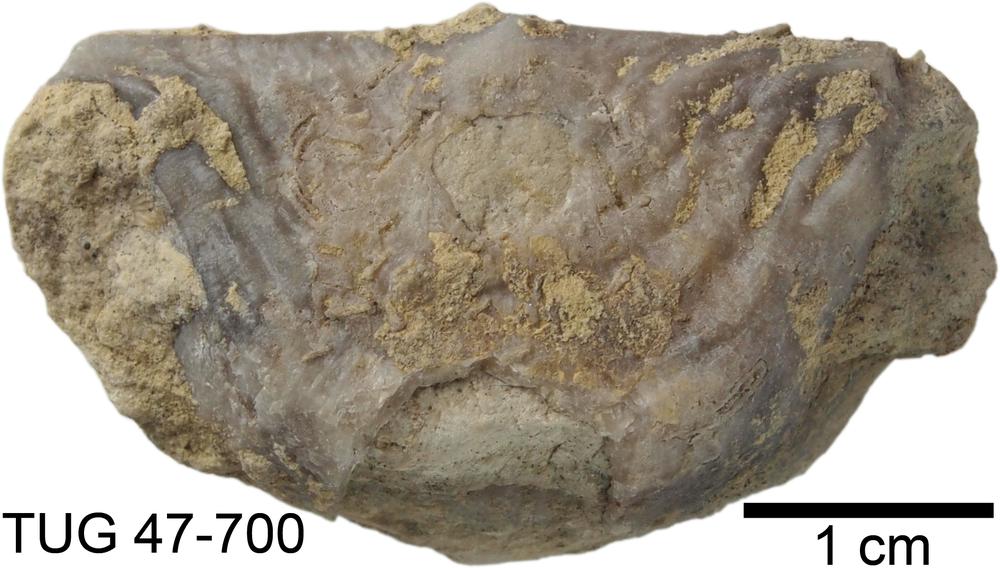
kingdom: Animalia
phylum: Brachiopoda
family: Strophomenidae
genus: Leptaena
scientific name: Leptaena rugosoides
